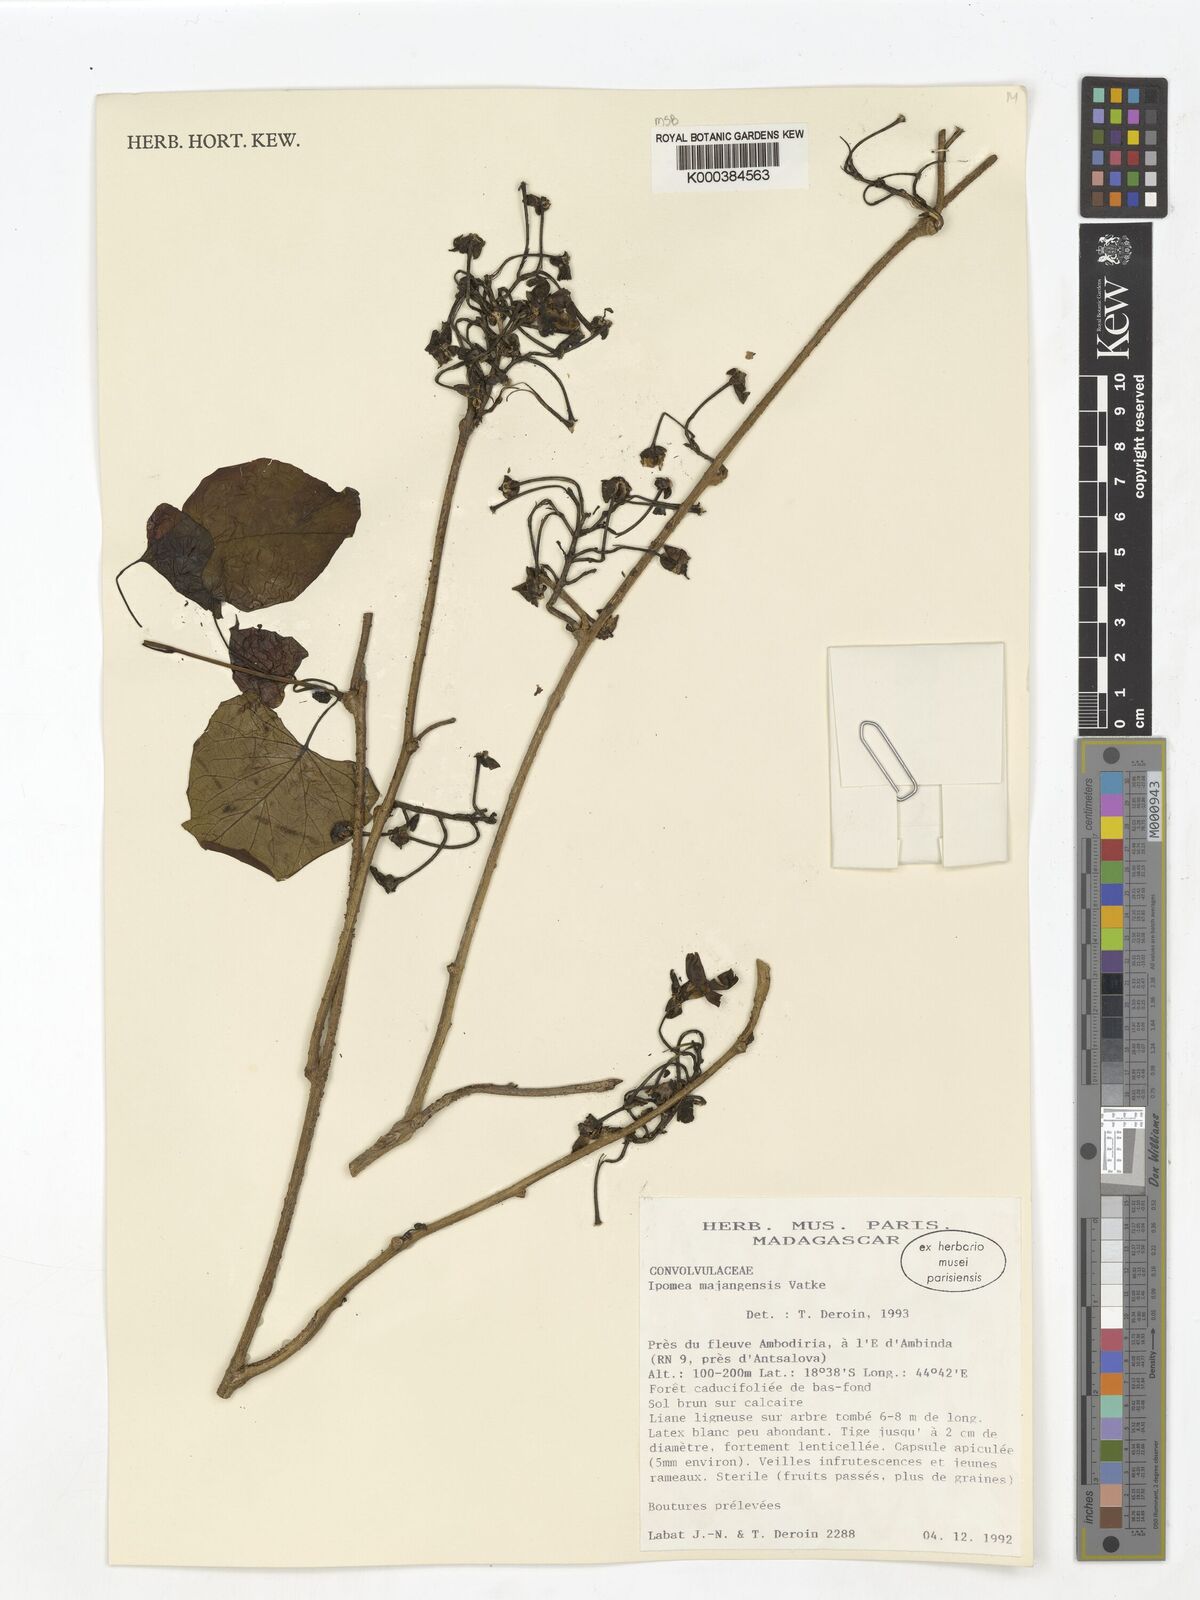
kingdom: Plantae
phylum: Tracheophyta
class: Magnoliopsida
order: Solanales
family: Convolvulaceae
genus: Stictocardia
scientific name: Stictocardia mojangensis
